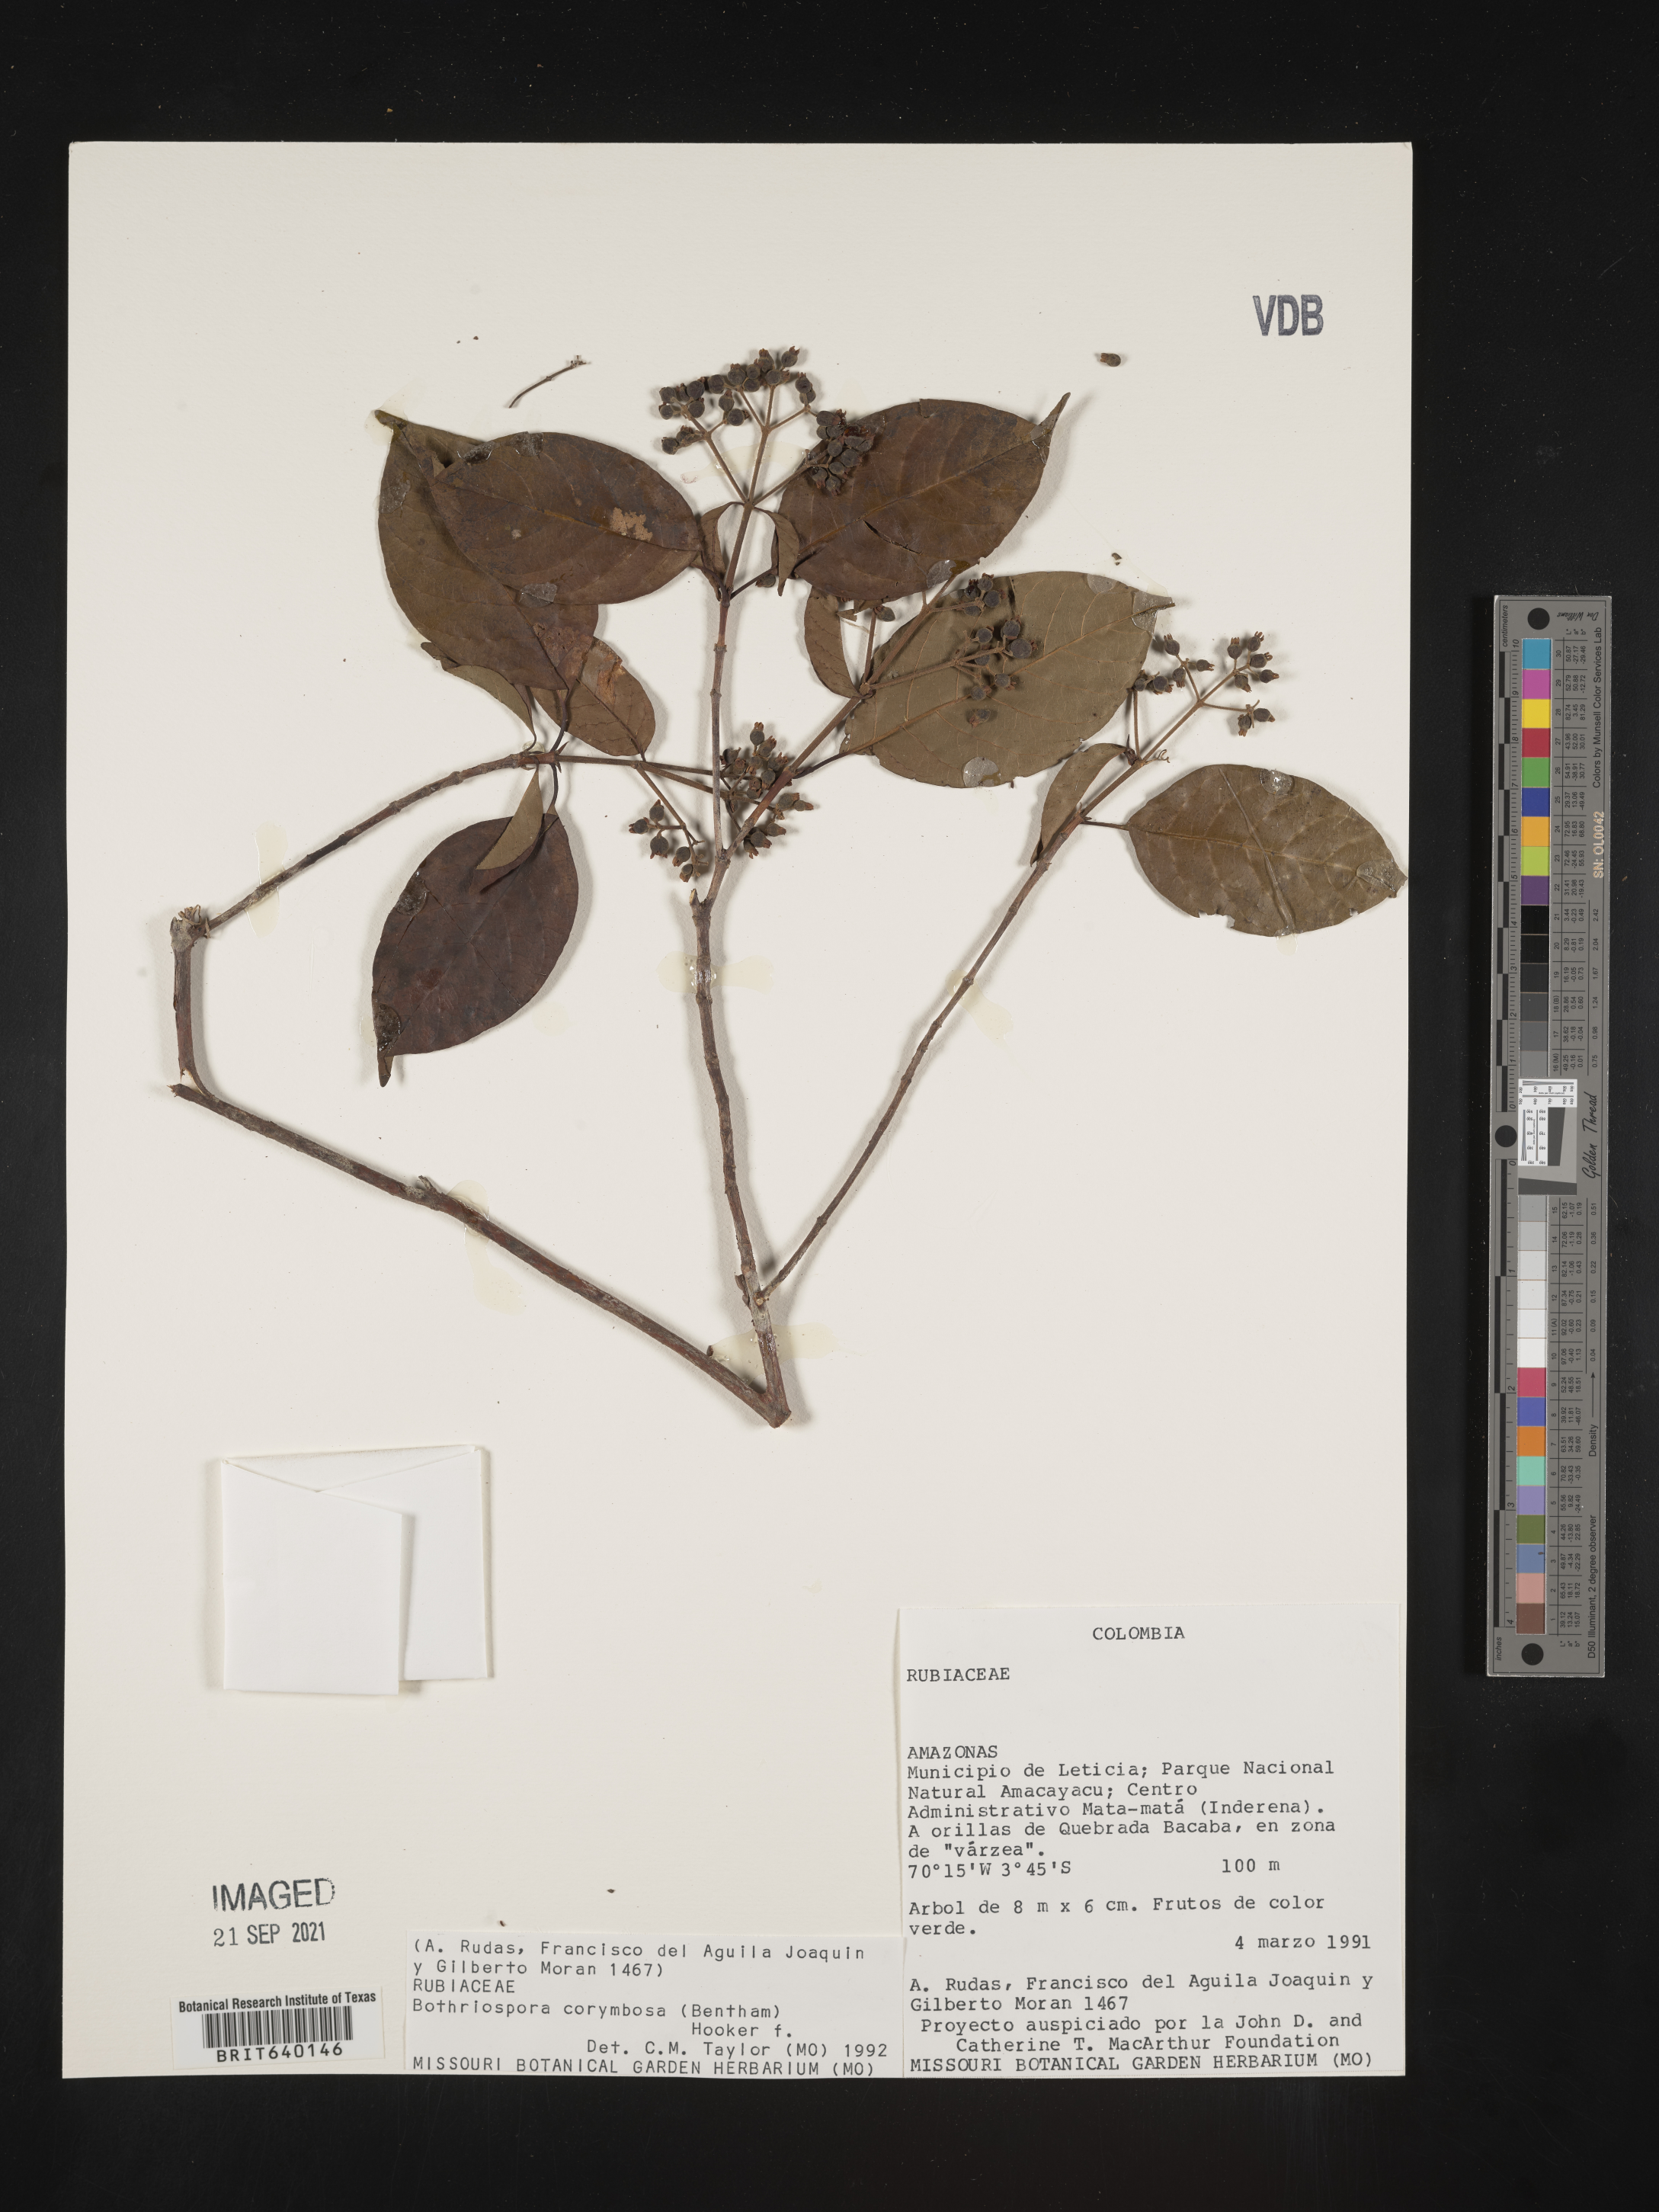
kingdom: Plantae
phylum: Tracheophyta
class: Magnoliopsida
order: Gentianales
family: Rubiaceae
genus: Bothriospora
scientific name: Bothriospora
